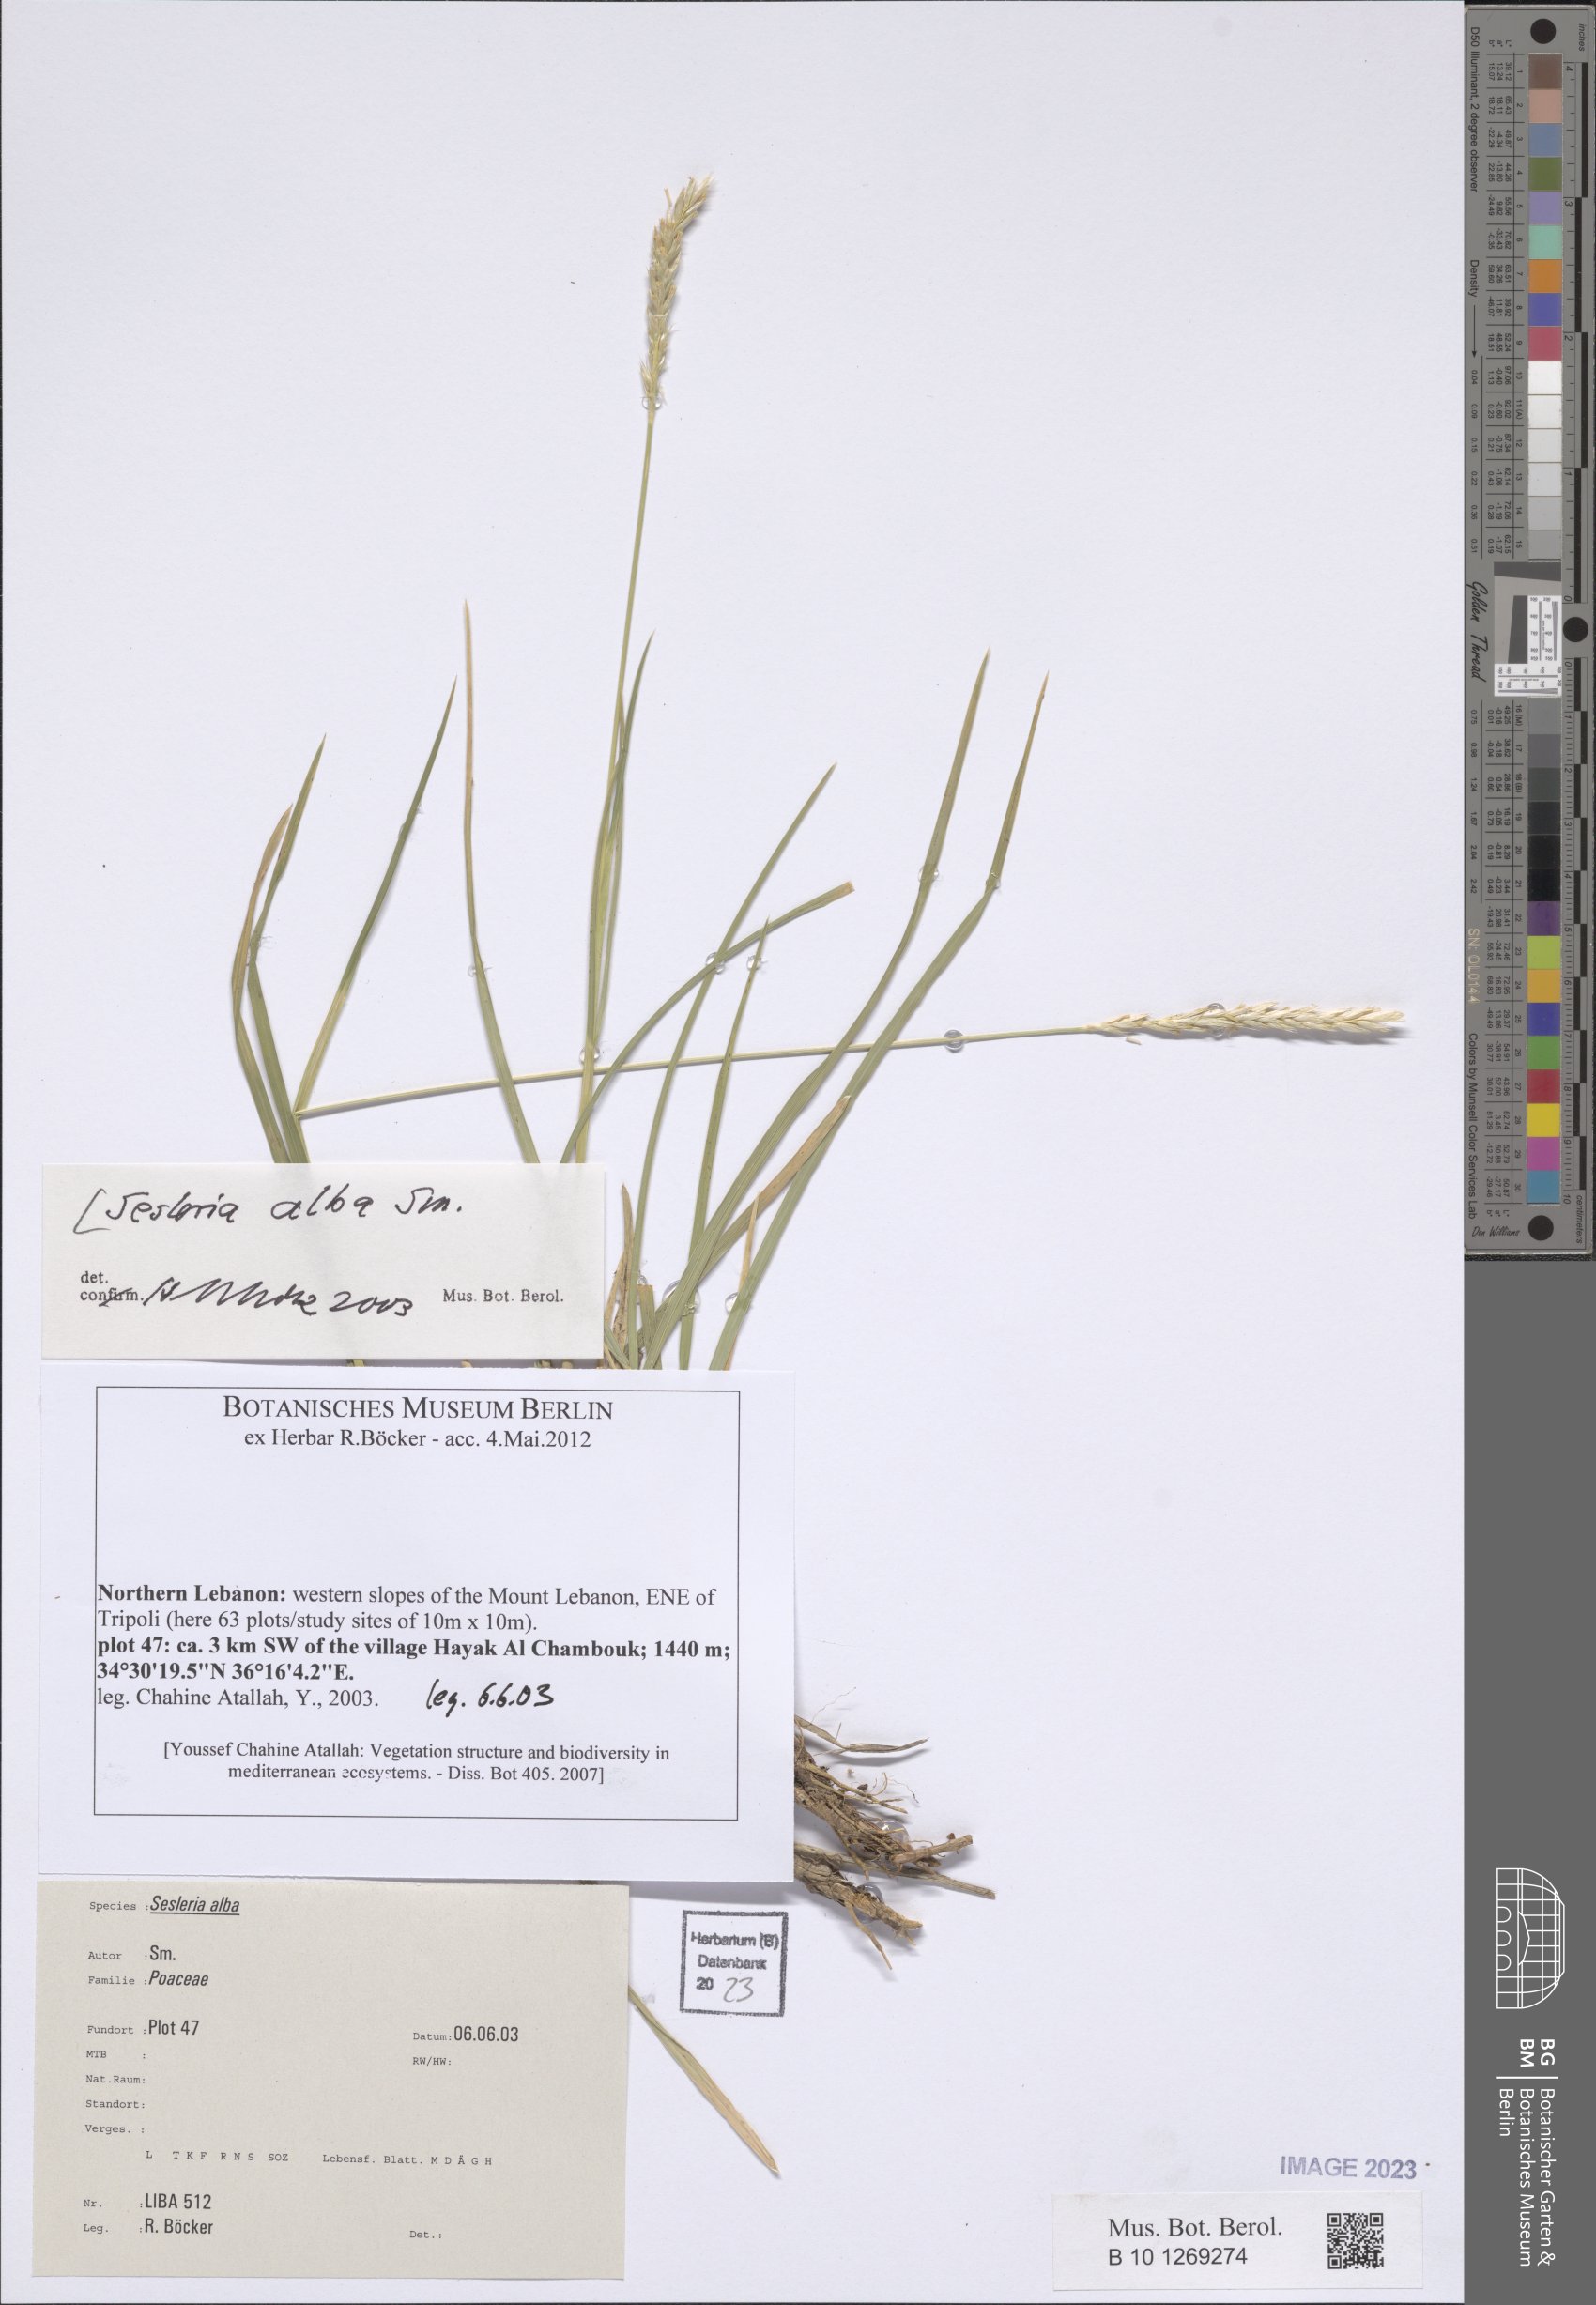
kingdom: Plantae
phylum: Tracheophyta
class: Liliopsida
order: Poales
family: Poaceae
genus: Sesleria
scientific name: Sesleria alba
